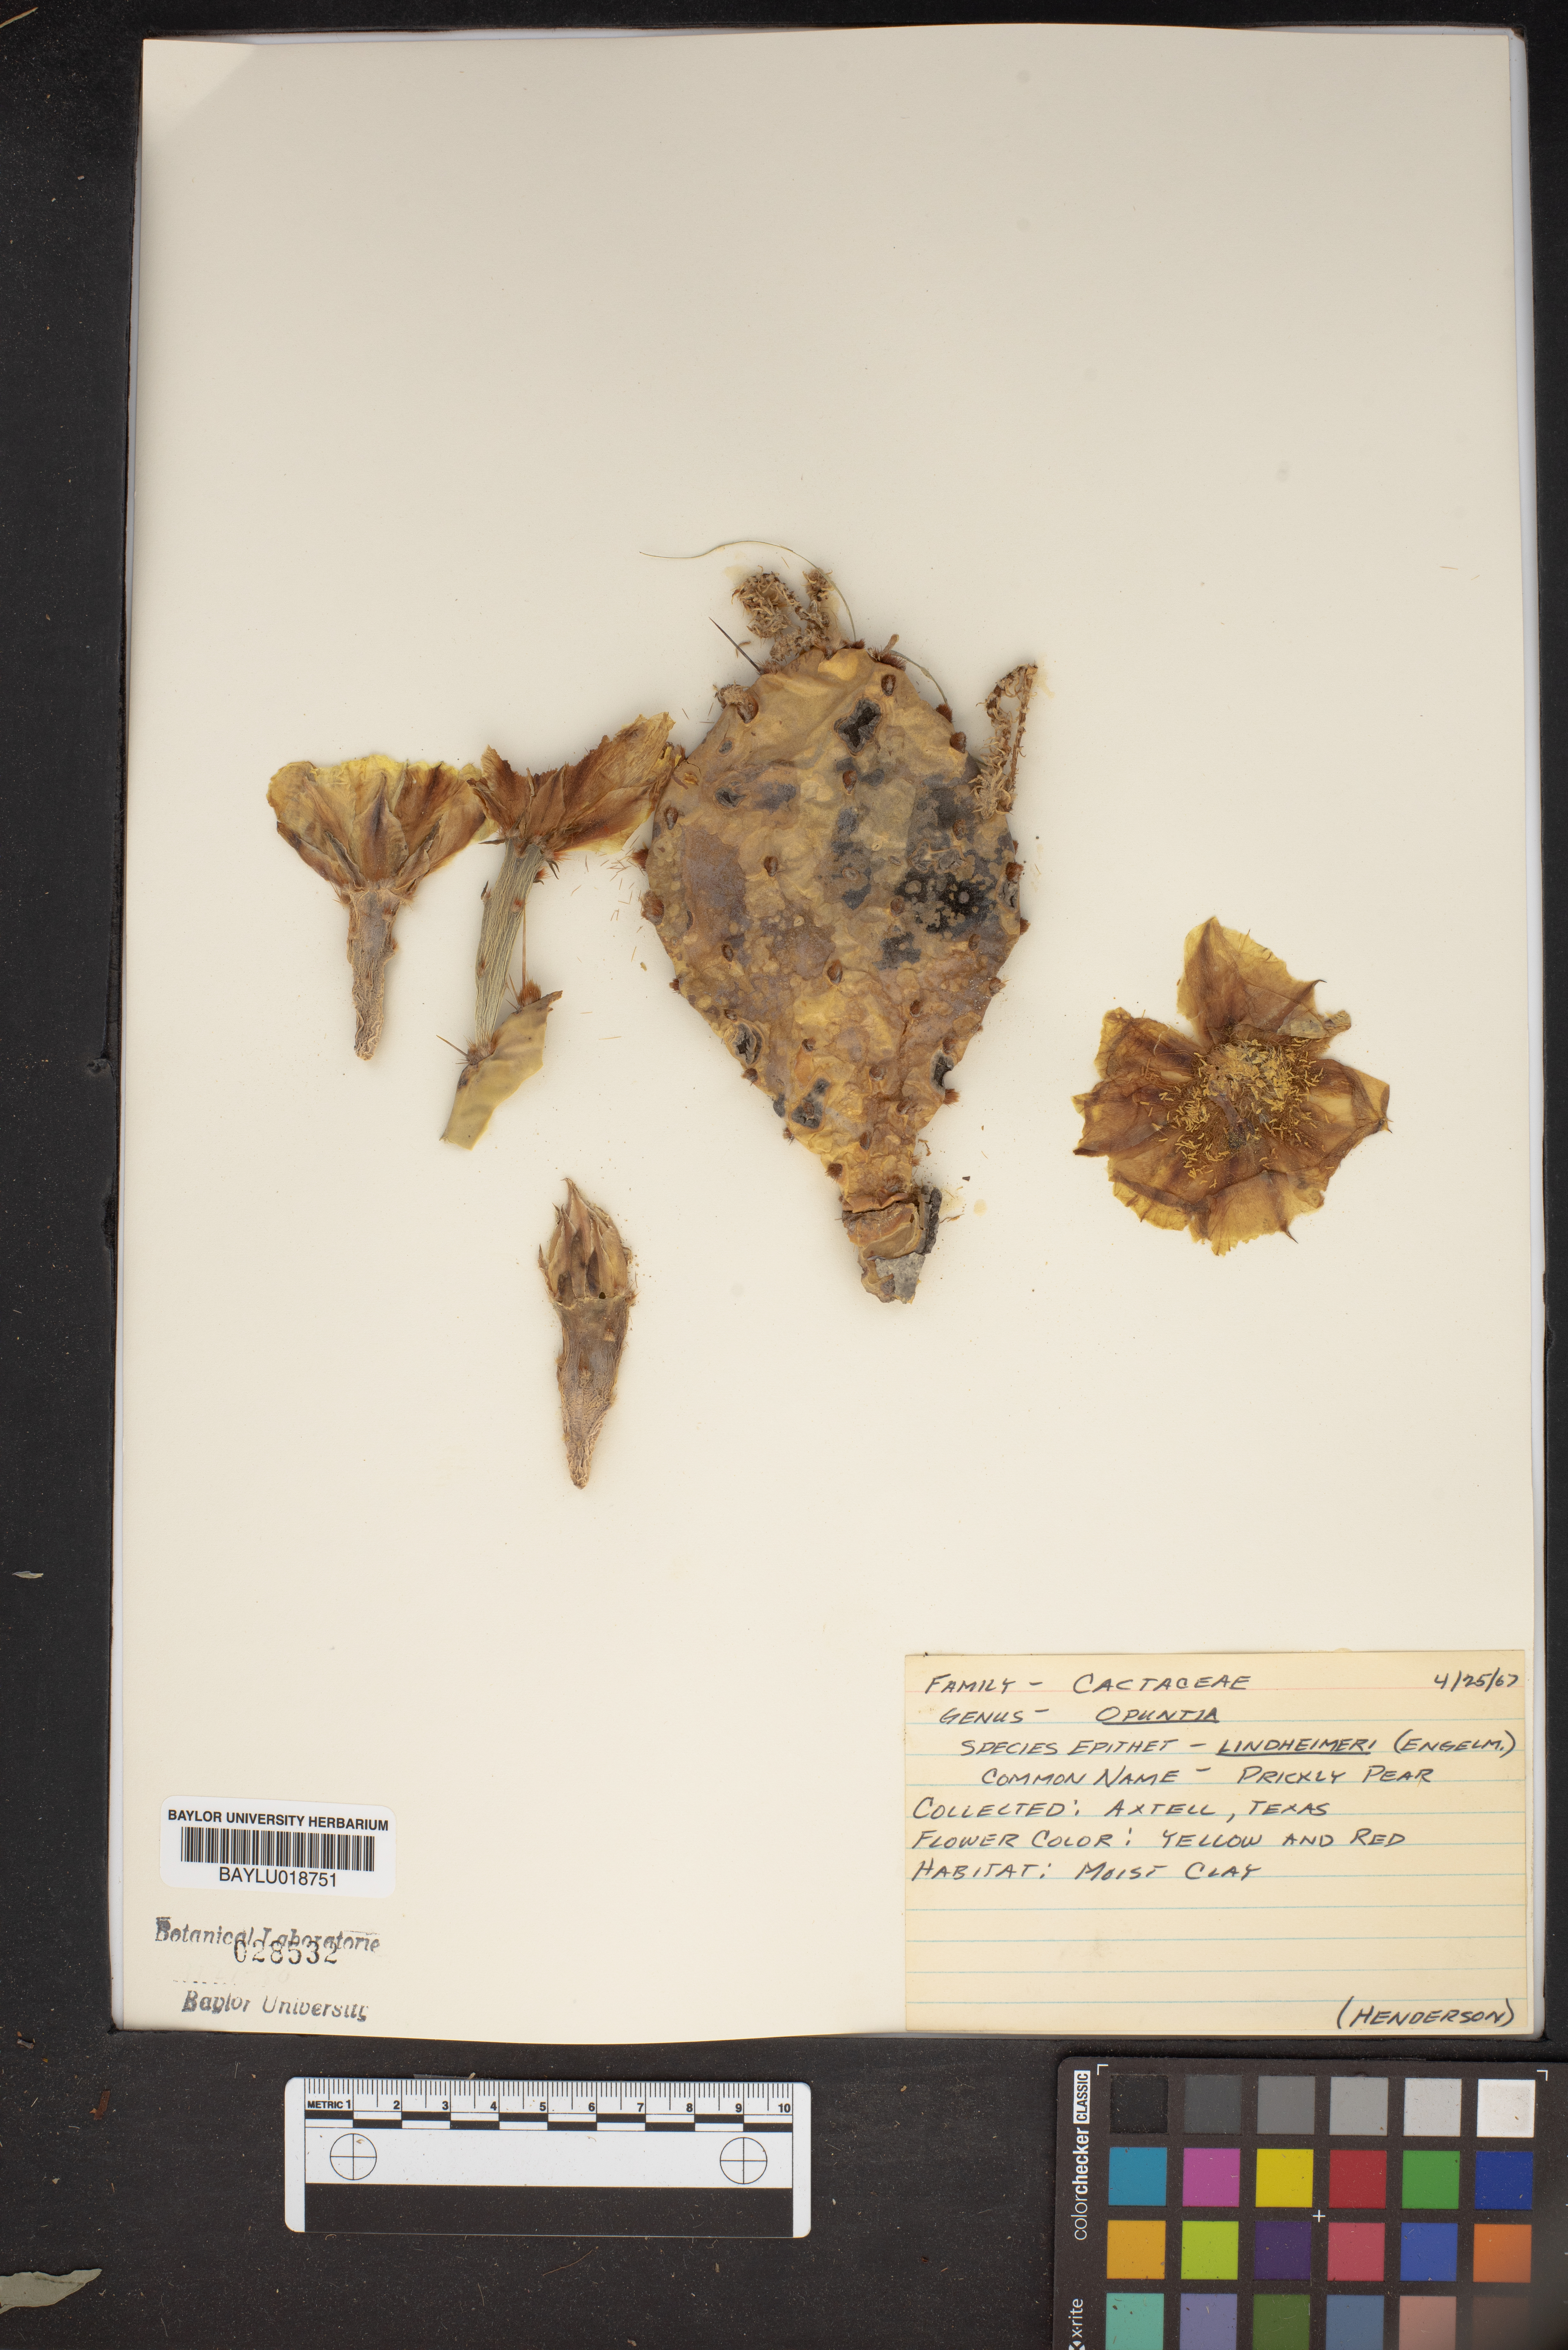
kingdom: Plantae
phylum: Tracheophyta
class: Magnoliopsida
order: Caryophyllales
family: Cactaceae
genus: Opuntia
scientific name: Opuntia engelmannii
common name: Cactus-apple
